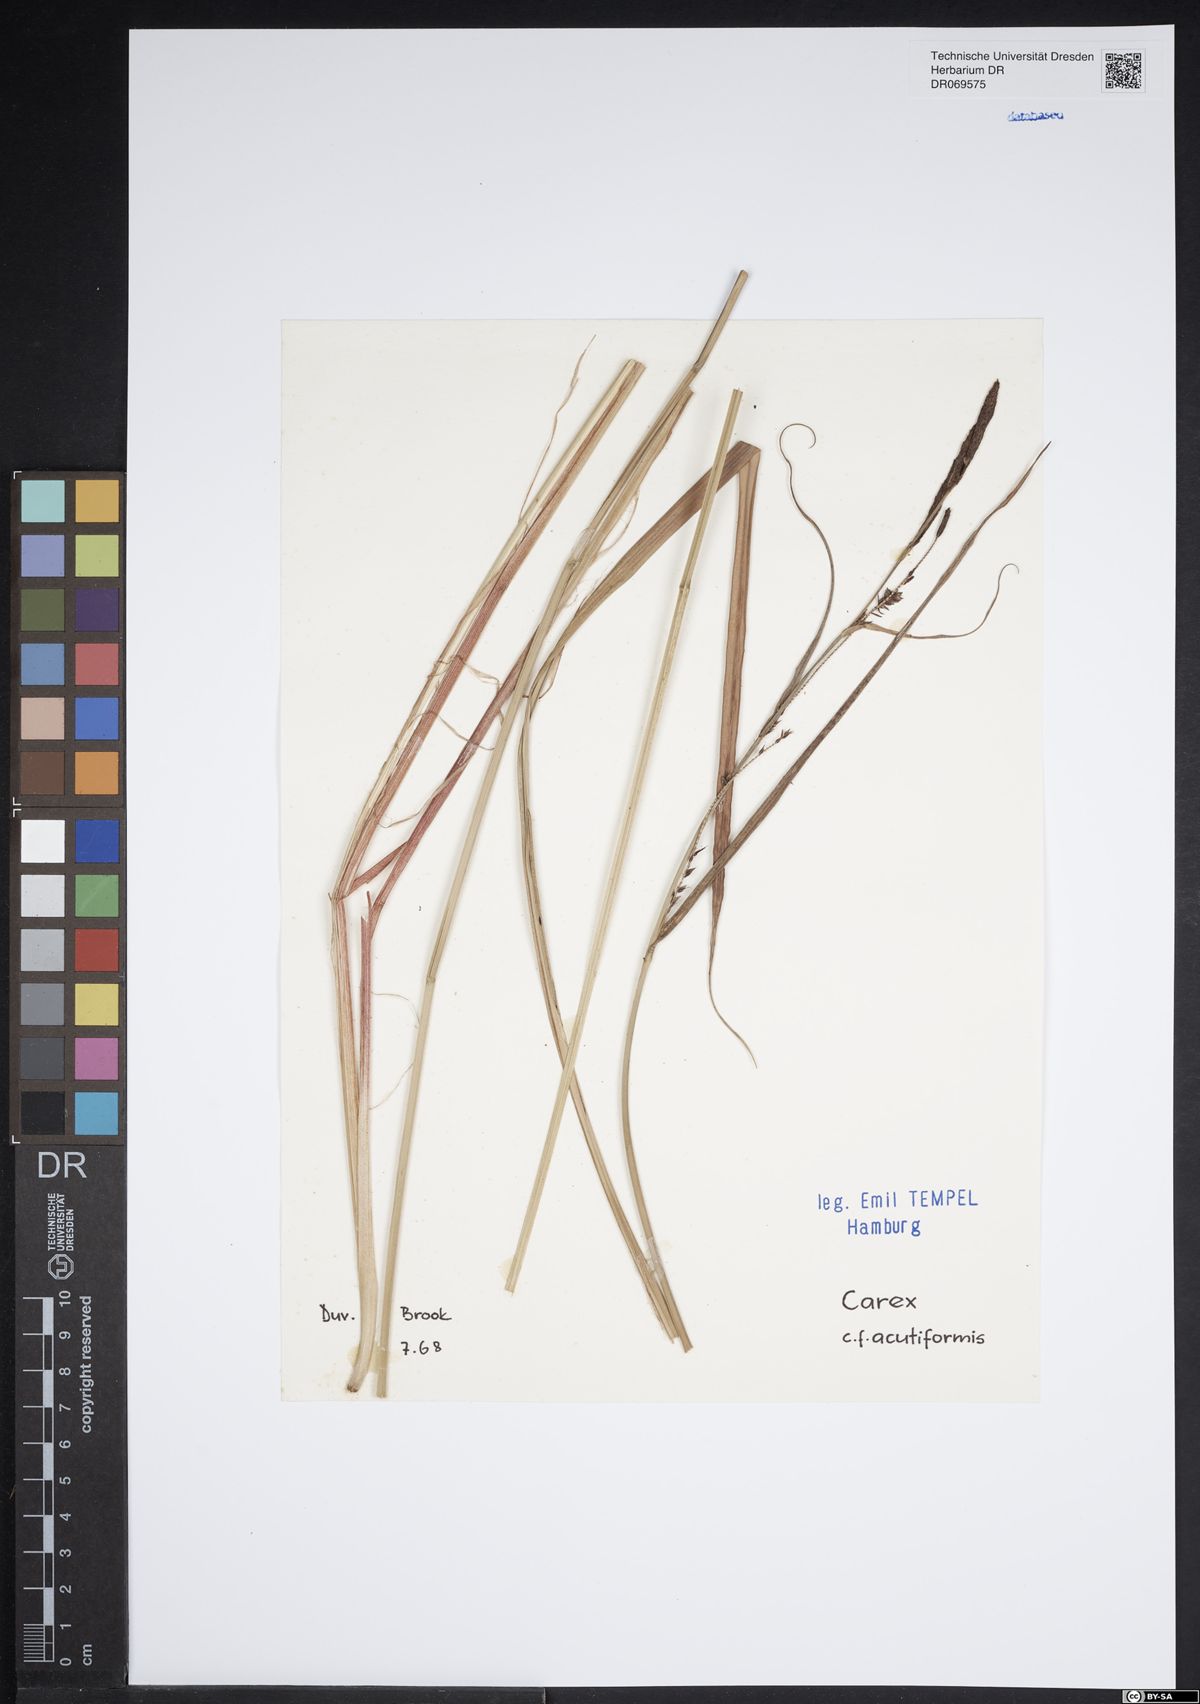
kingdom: Plantae
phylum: Tracheophyta
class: Liliopsida
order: Poales
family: Cyperaceae
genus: Carex
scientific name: Carex acutiformis
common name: Lesser pond-sedge
